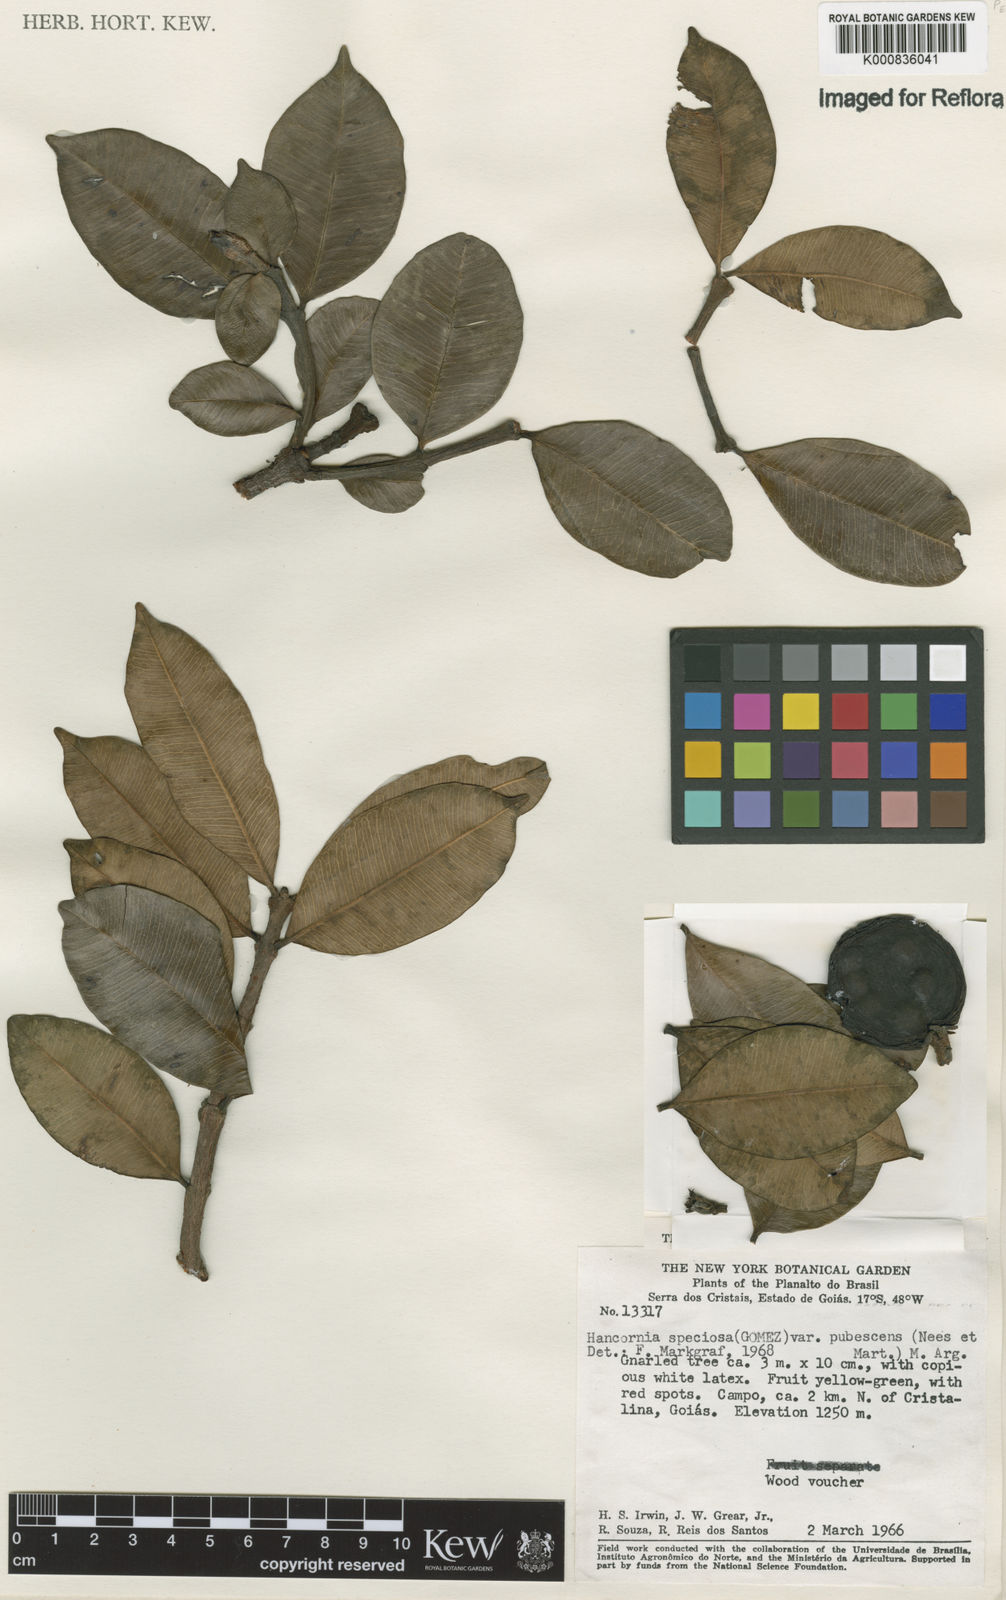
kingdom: Plantae
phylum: Tracheophyta
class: Magnoliopsida
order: Gentianales
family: Apocynaceae
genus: Hancornia
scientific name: Hancornia speciosa
